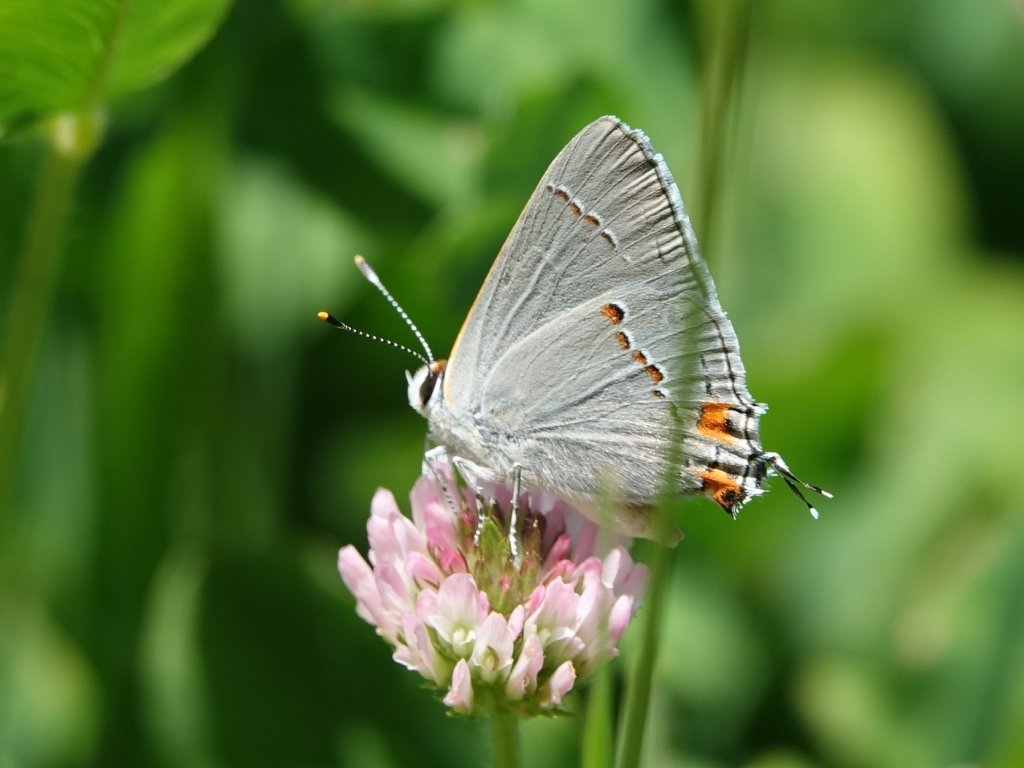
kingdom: Animalia
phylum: Arthropoda
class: Insecta
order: Lepidoptera
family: Lycaenidae
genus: Strymon
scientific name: Strymon melinus
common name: Gray Hairstreak
